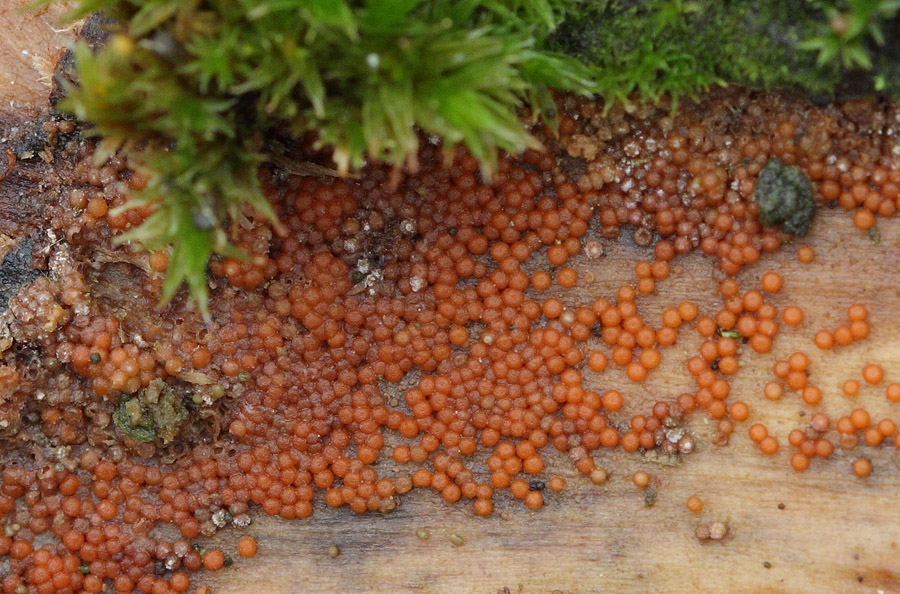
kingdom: Fungi
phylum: Ascomycota
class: Sordariomycetes
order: Hypocreales
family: Nectriaceae
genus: Hydropisphaera
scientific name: Hydropisphaera peziza
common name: skålformet gyldenkerne
